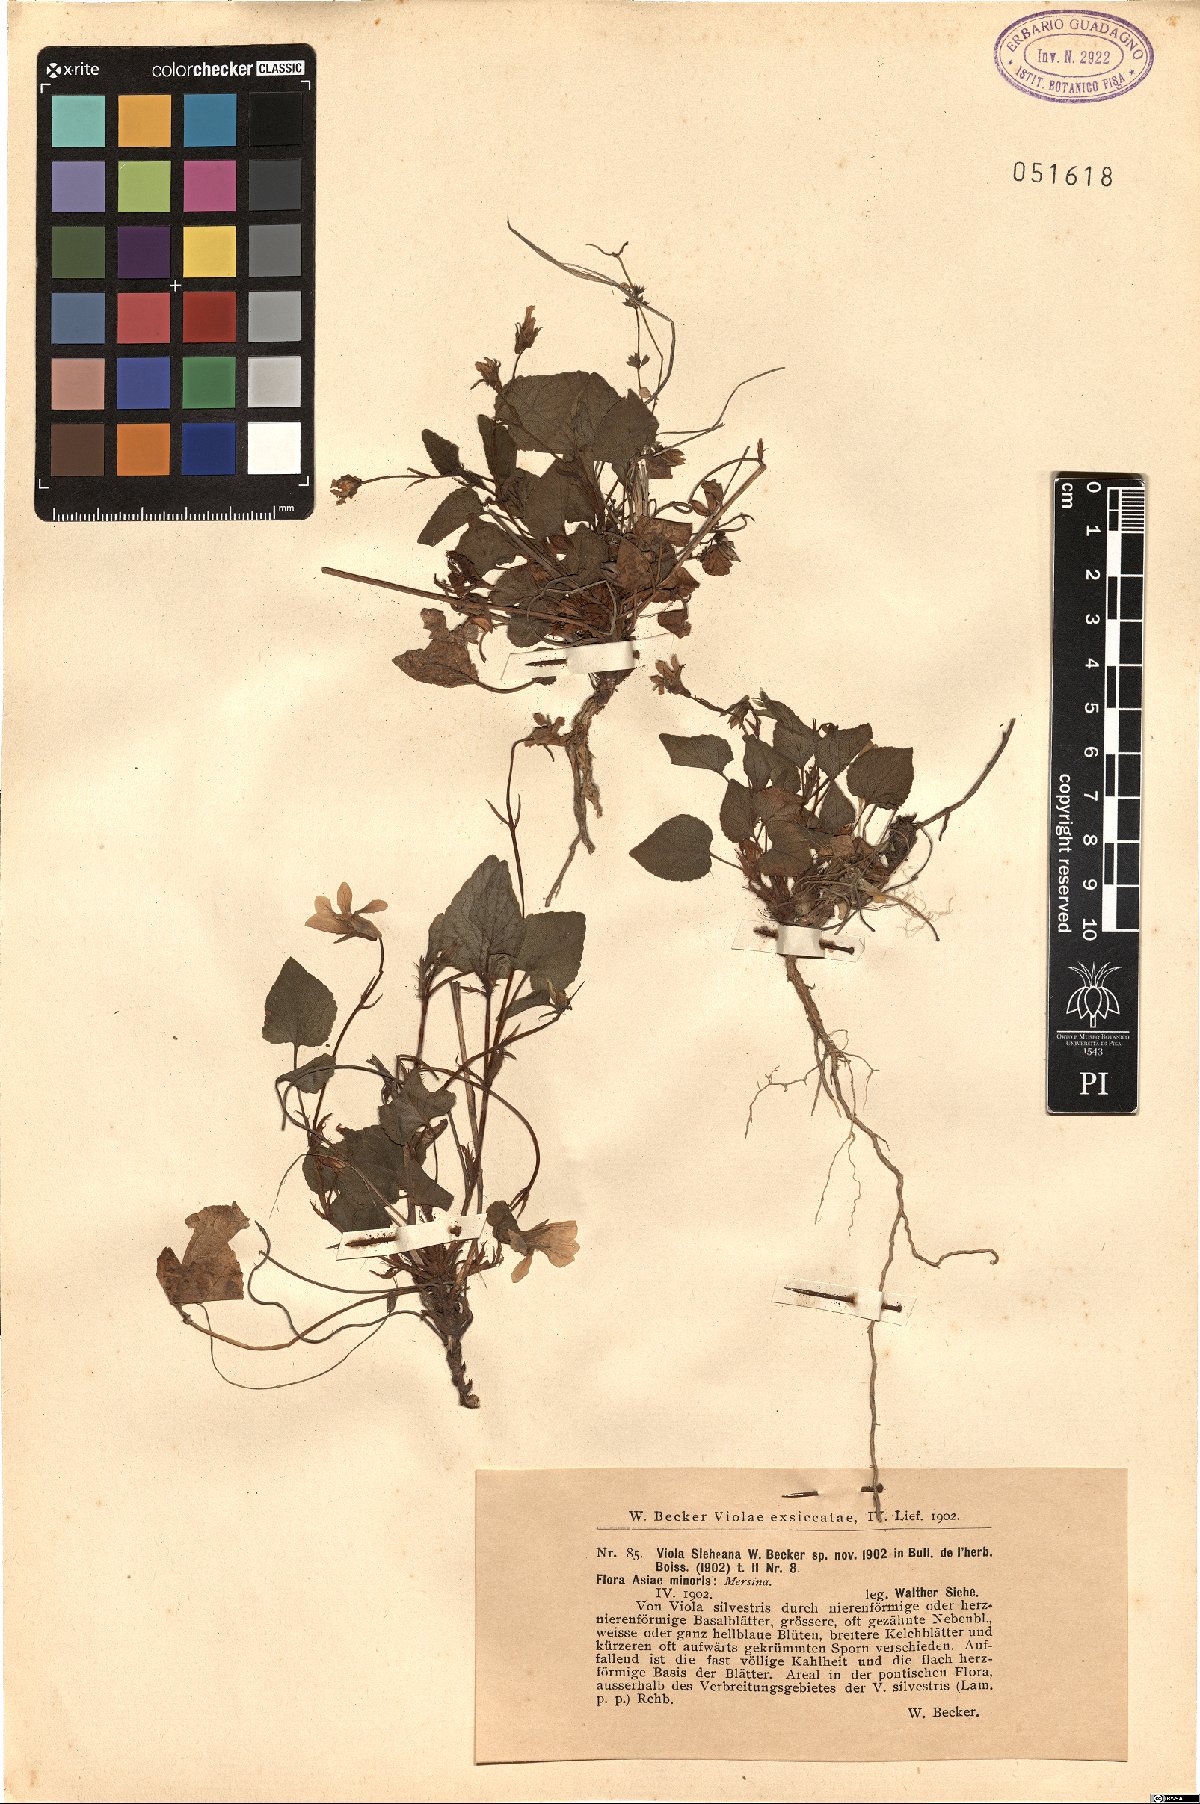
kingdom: Plantae
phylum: Tracheophyta
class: Magnoliopsida
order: Malpighiales
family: Violaceae
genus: Viola
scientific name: Viola sieheana
